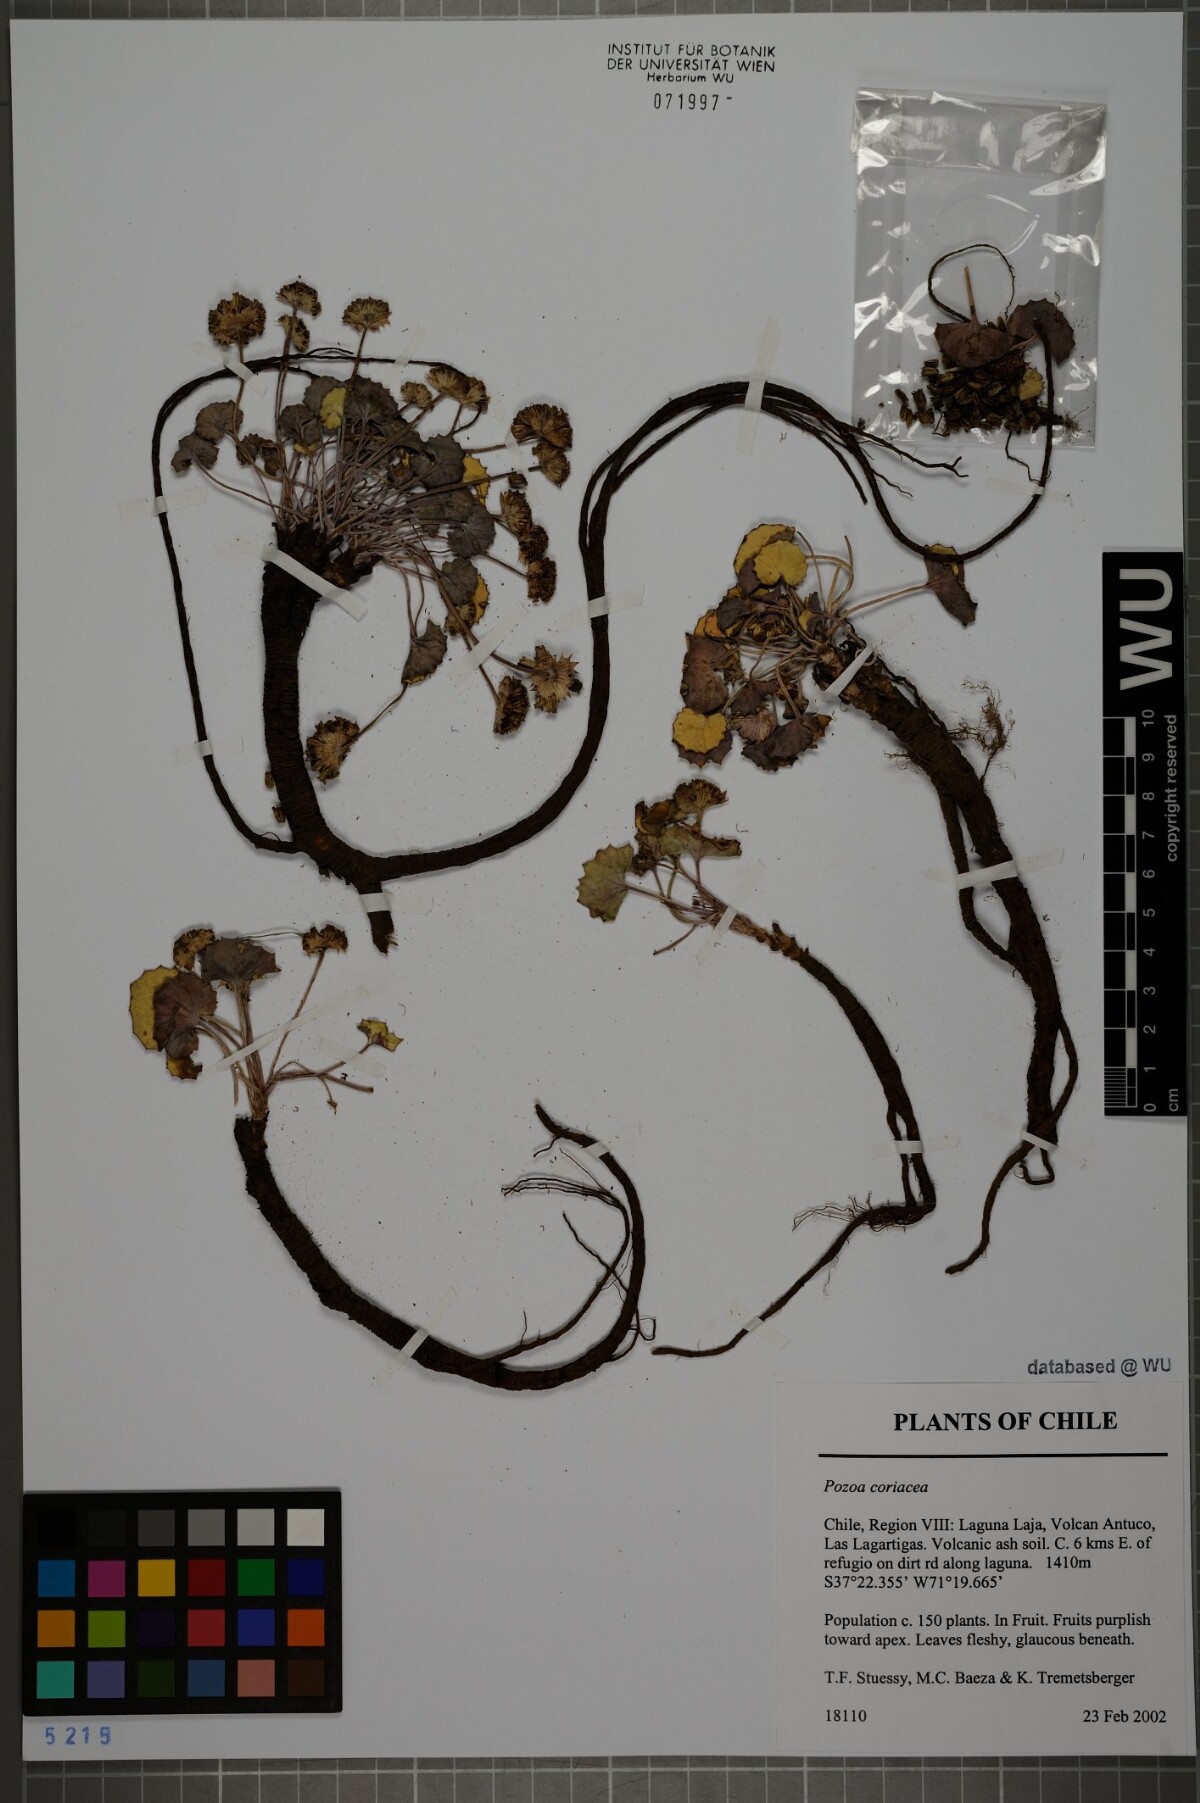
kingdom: Plantae
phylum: Tracheophyta
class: Magnoliopsida
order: Apiales
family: Apiaceae
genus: Pozoa
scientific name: Pozoa coriacea
